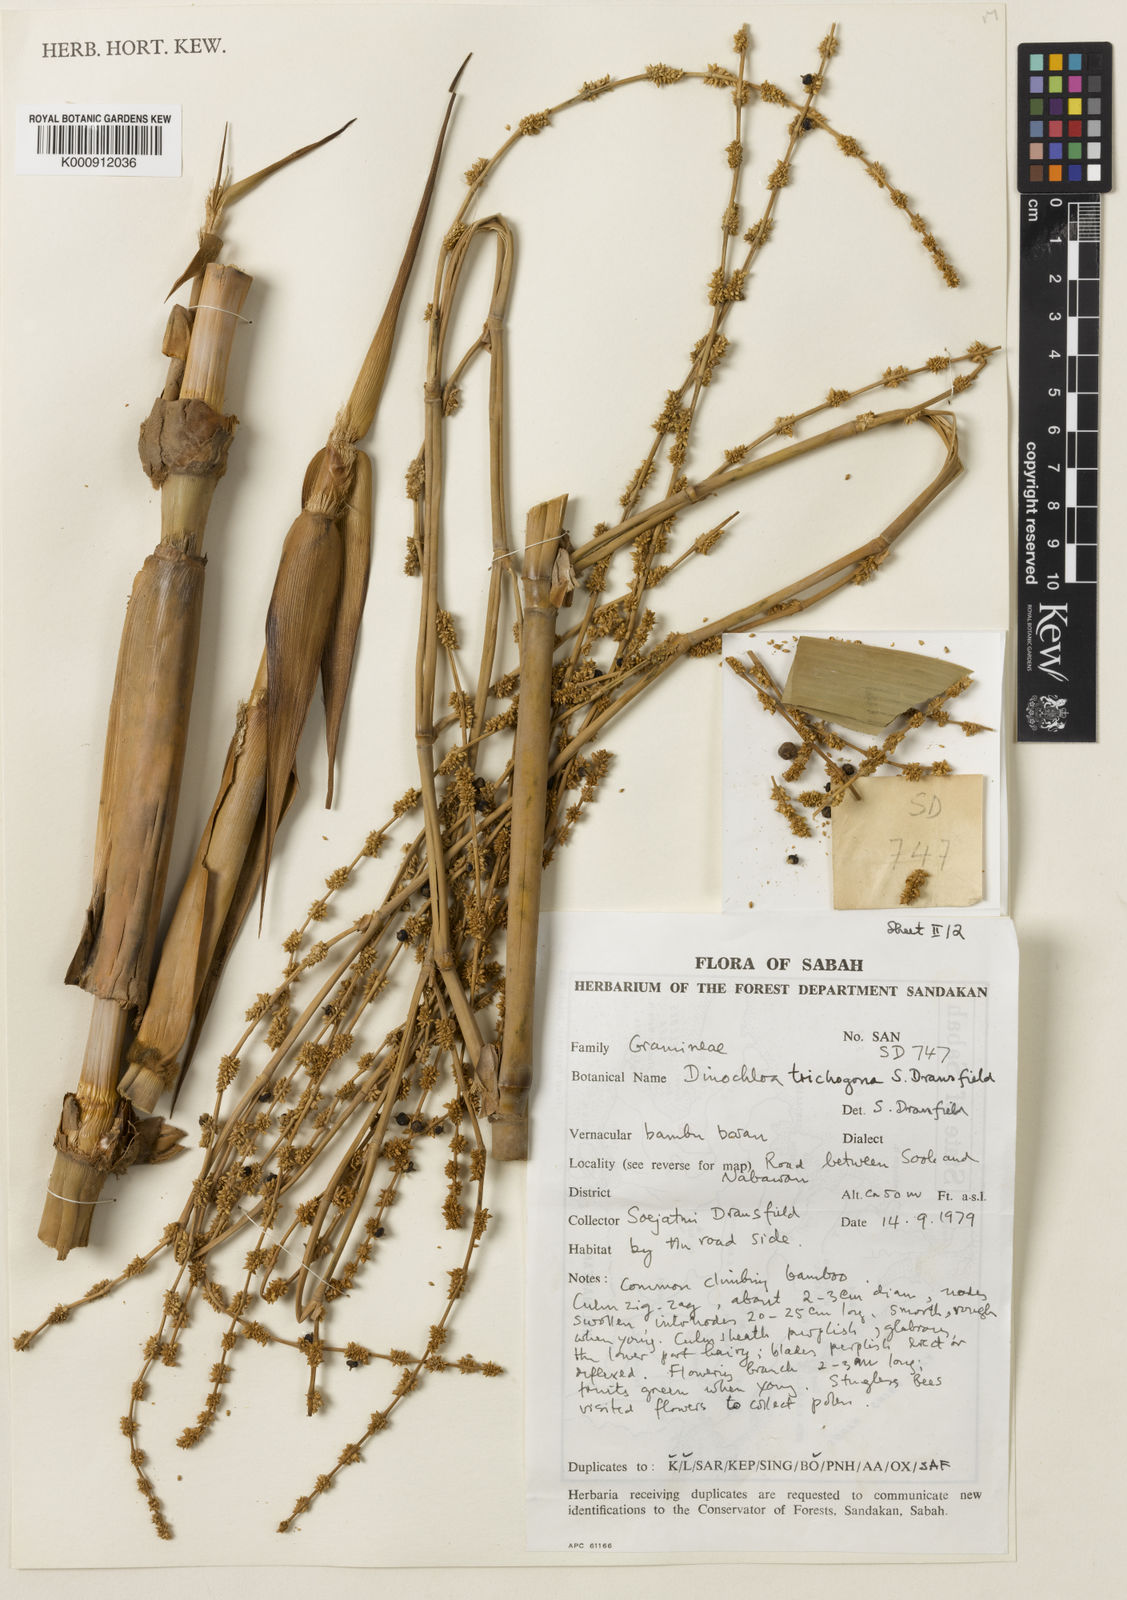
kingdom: Plantae
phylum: Tracheophyta
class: Liliopsida
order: Poales
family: Poaceae
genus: Dinochloa
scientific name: Dinochloa trichogona
